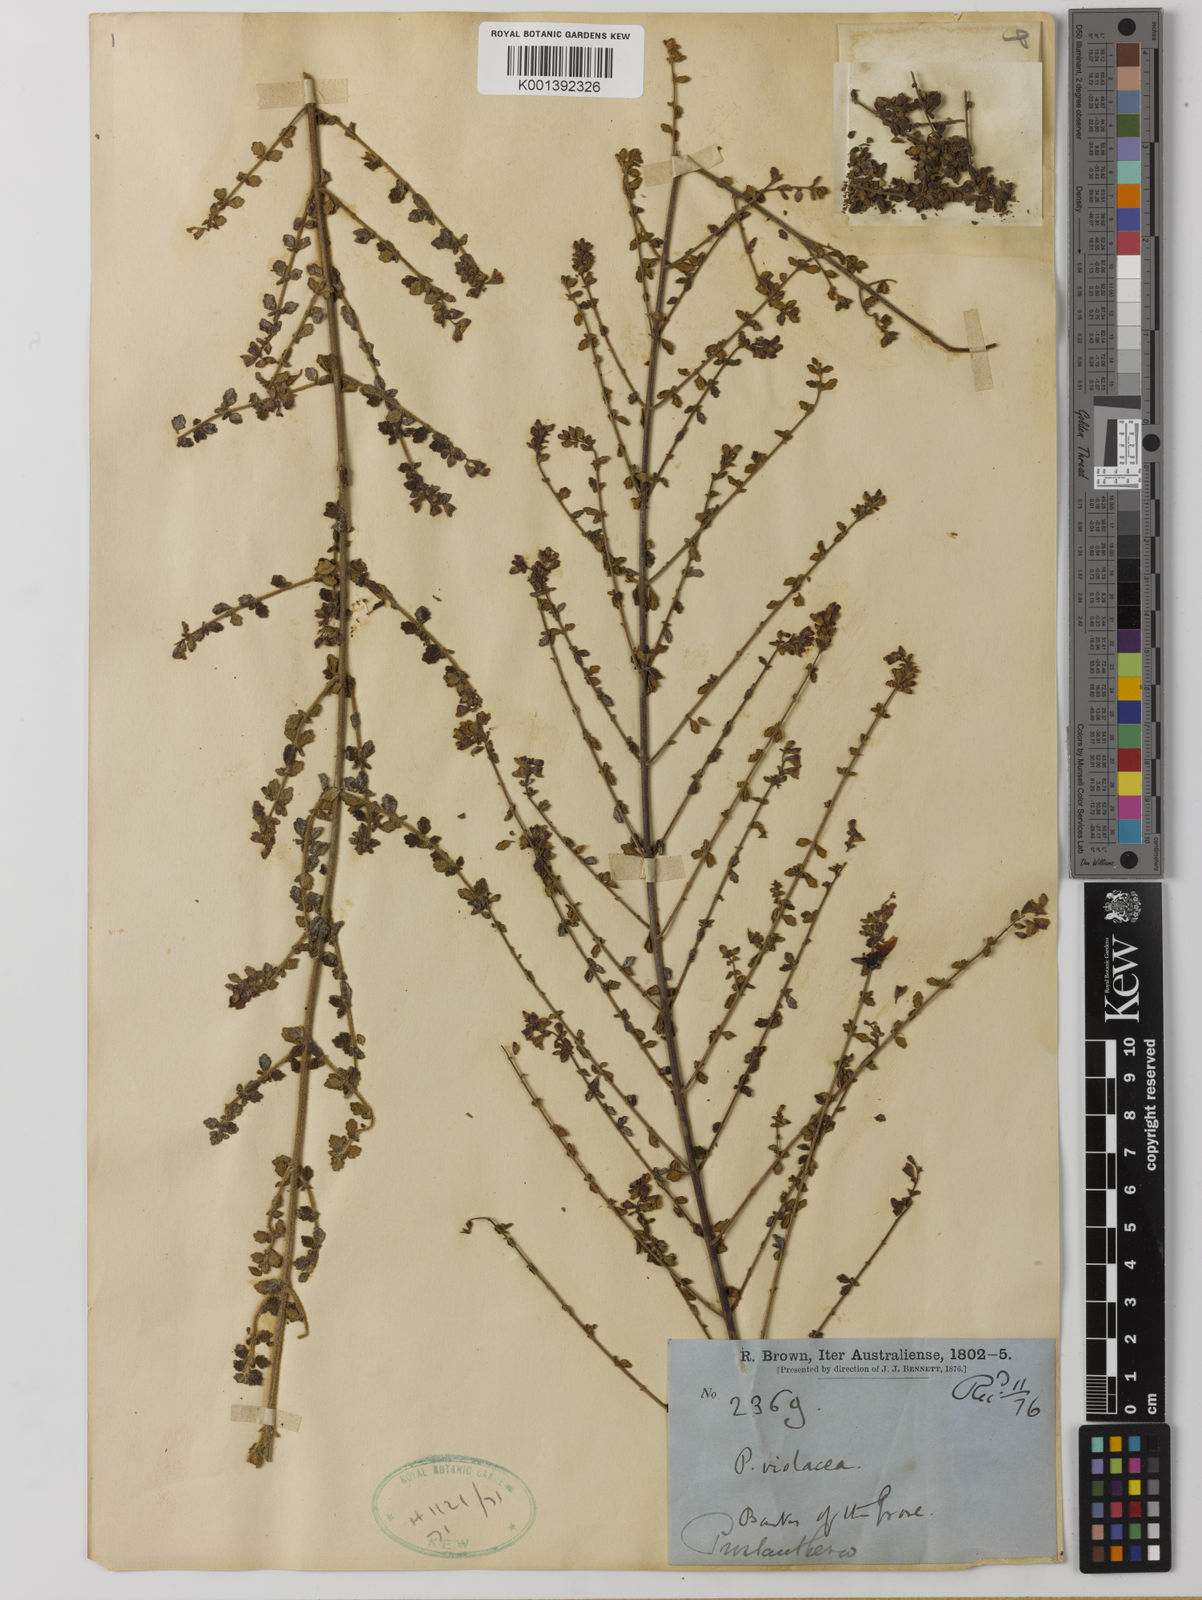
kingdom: Plantae
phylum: Tracheophyta
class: Magnoliopsida
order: Lamiales
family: Lamiaceae
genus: Prostanthera
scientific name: Prostanthera violacea
